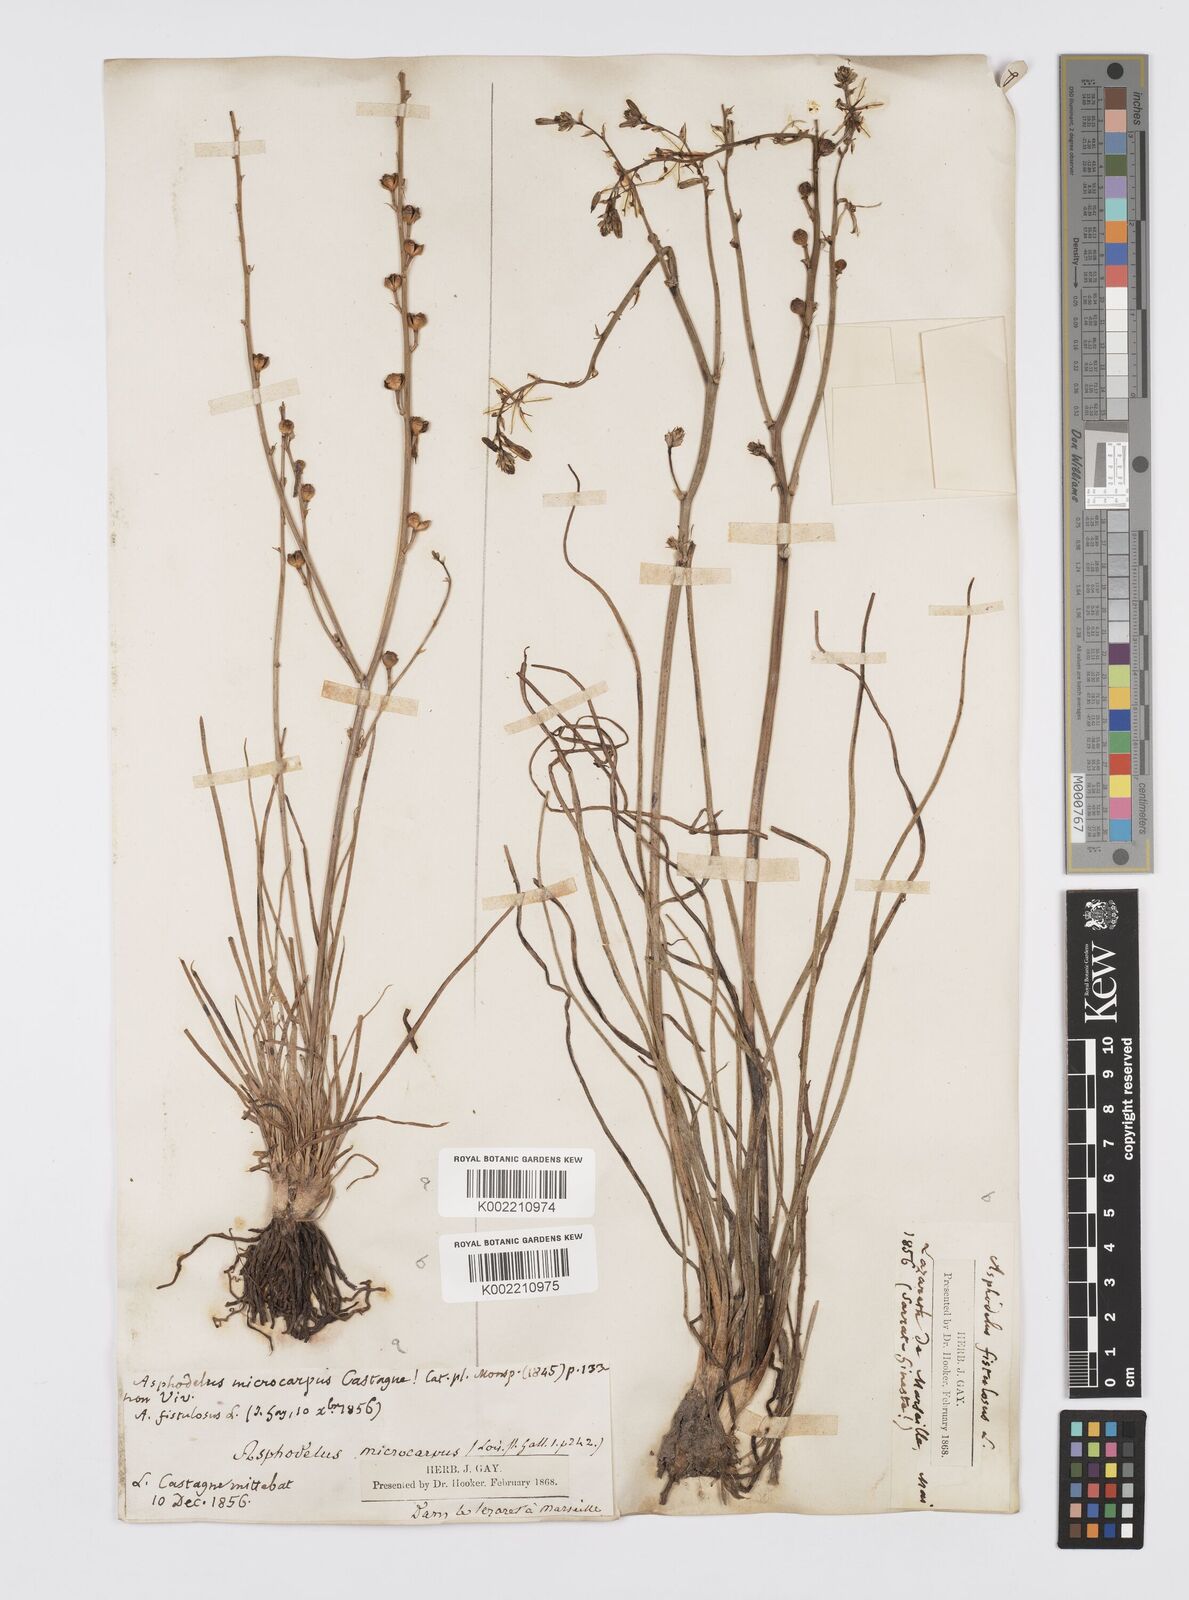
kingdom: Plantae
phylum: Tracheophyta
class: Liliopsida
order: Asparagales
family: Asphodelaceae
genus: Asphodelus
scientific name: Asphodelus fistulosus
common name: Onionweed
